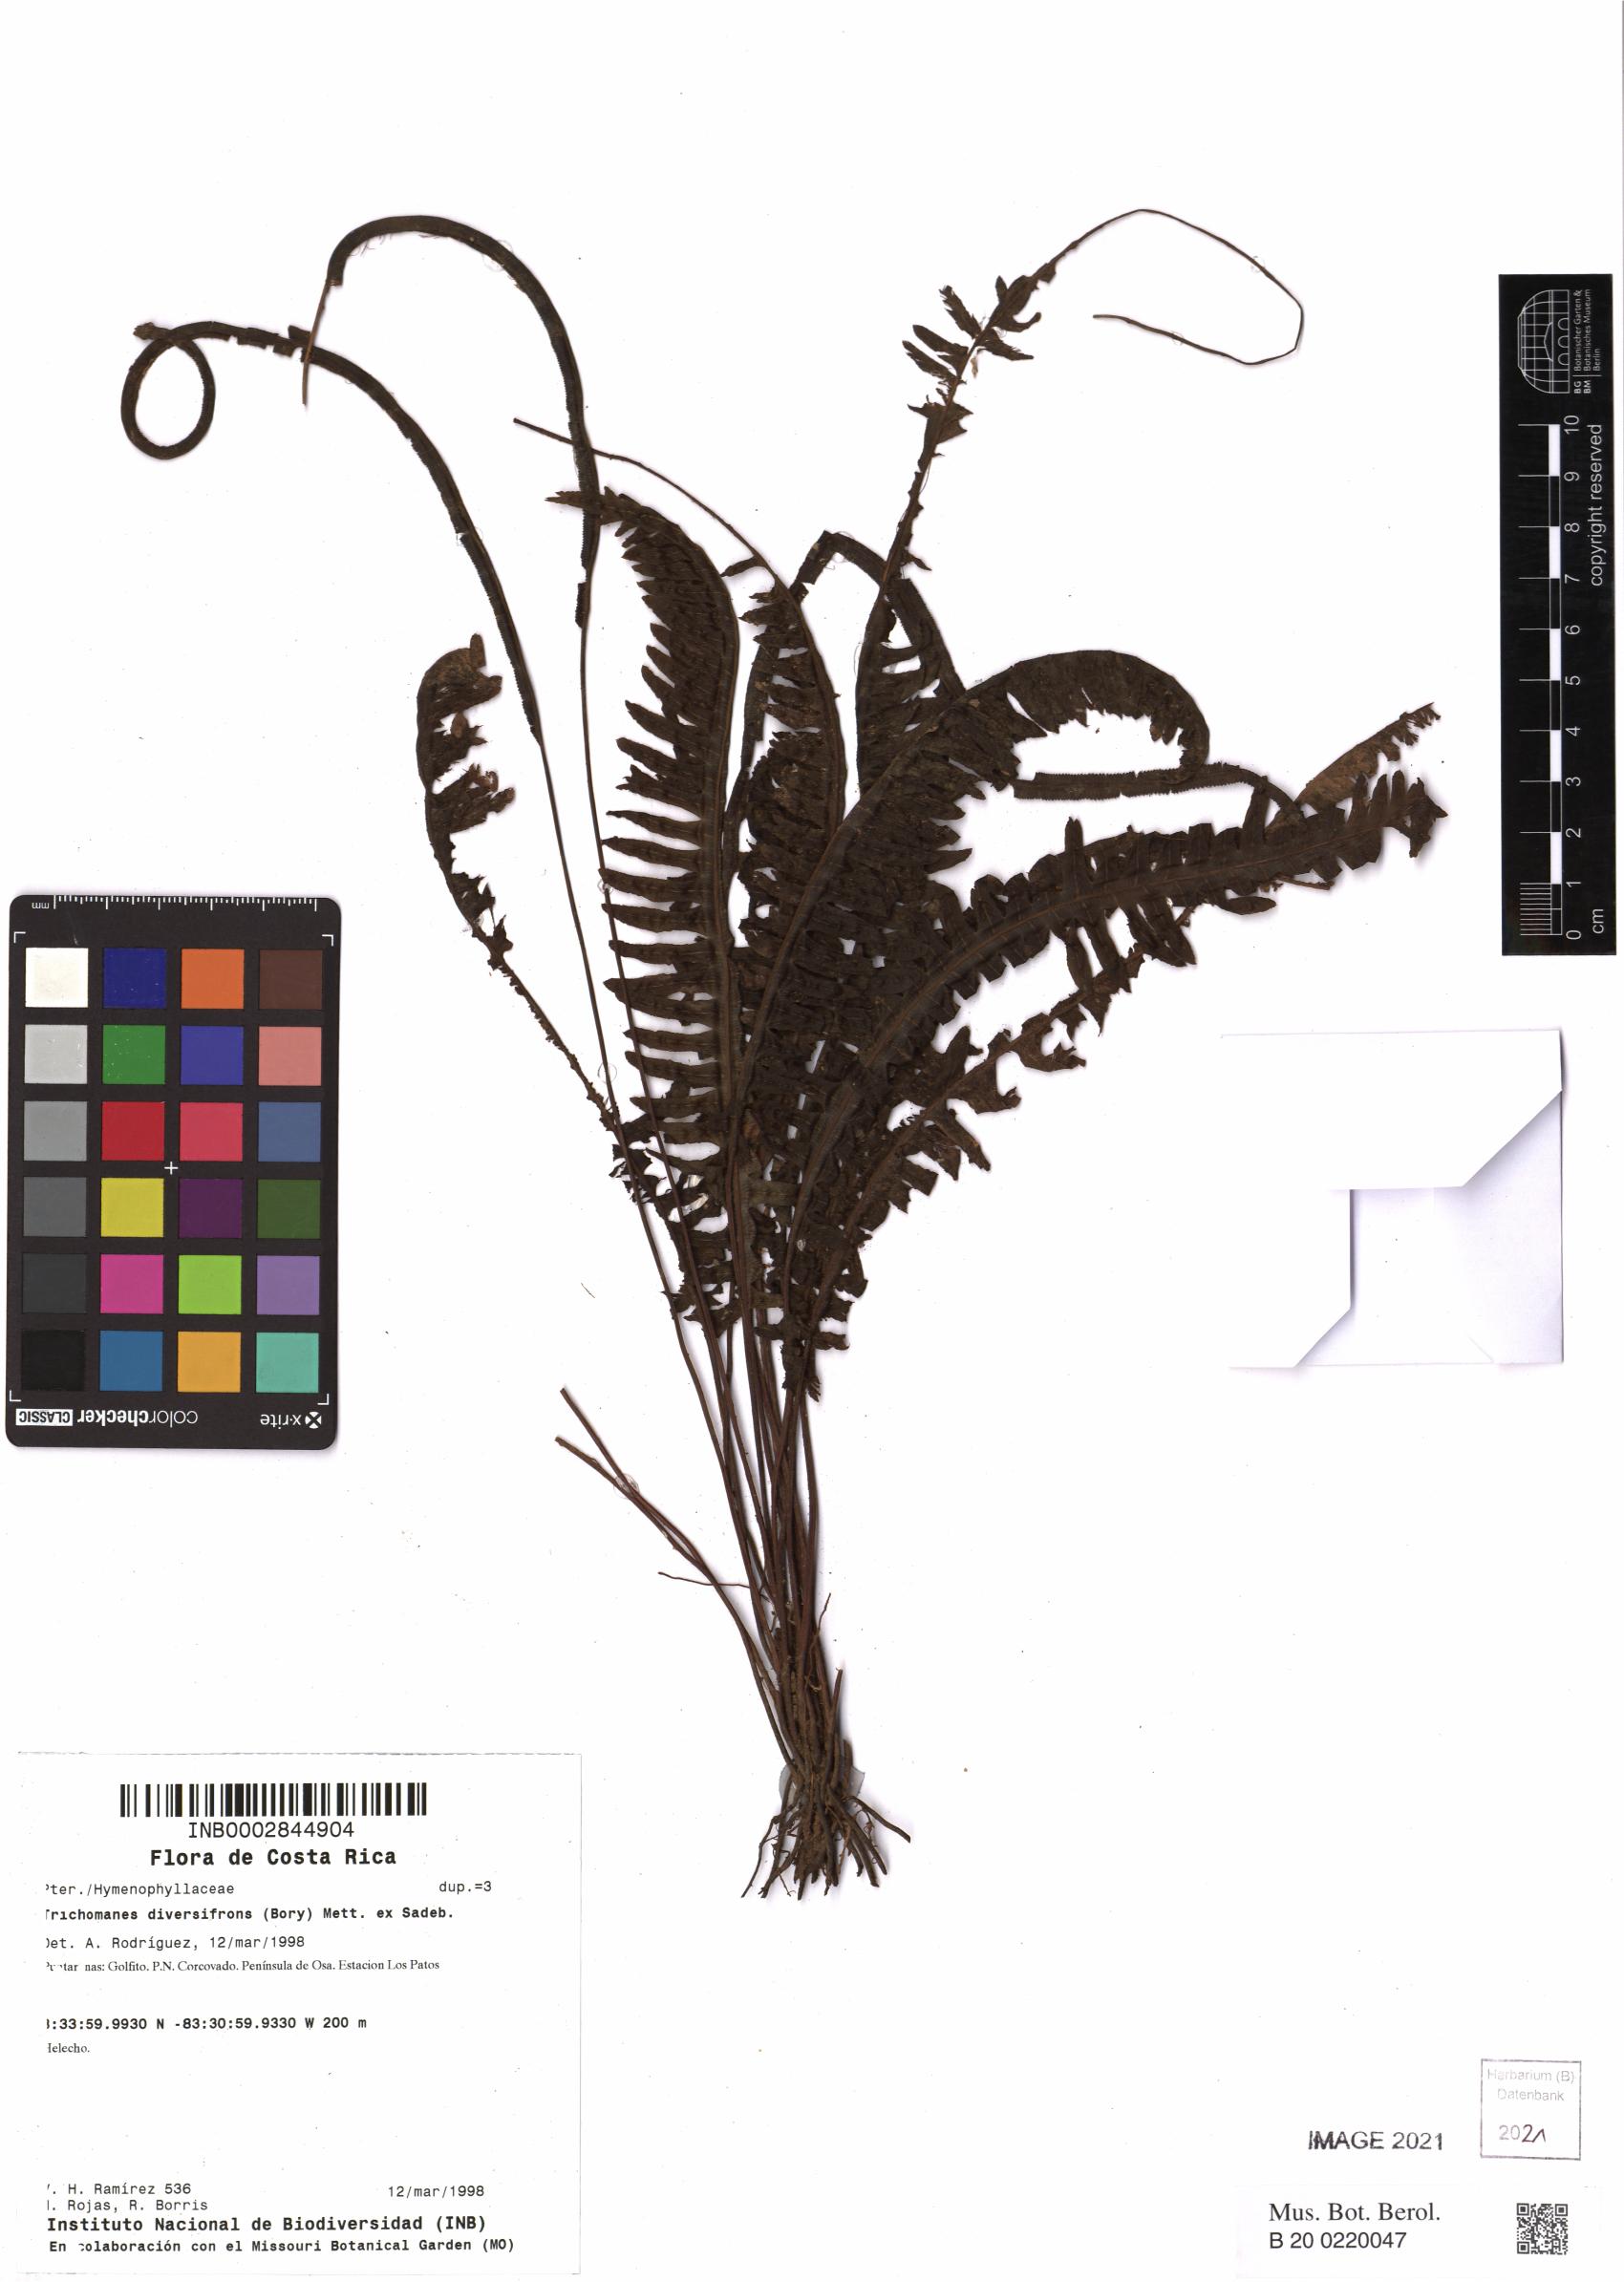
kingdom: Plantae
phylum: Tracheophyta
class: Polypodiopsida
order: Hymenophyllales
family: Hymenophyllaceae
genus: Trichomanes
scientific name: Trichomanes diversifrons
